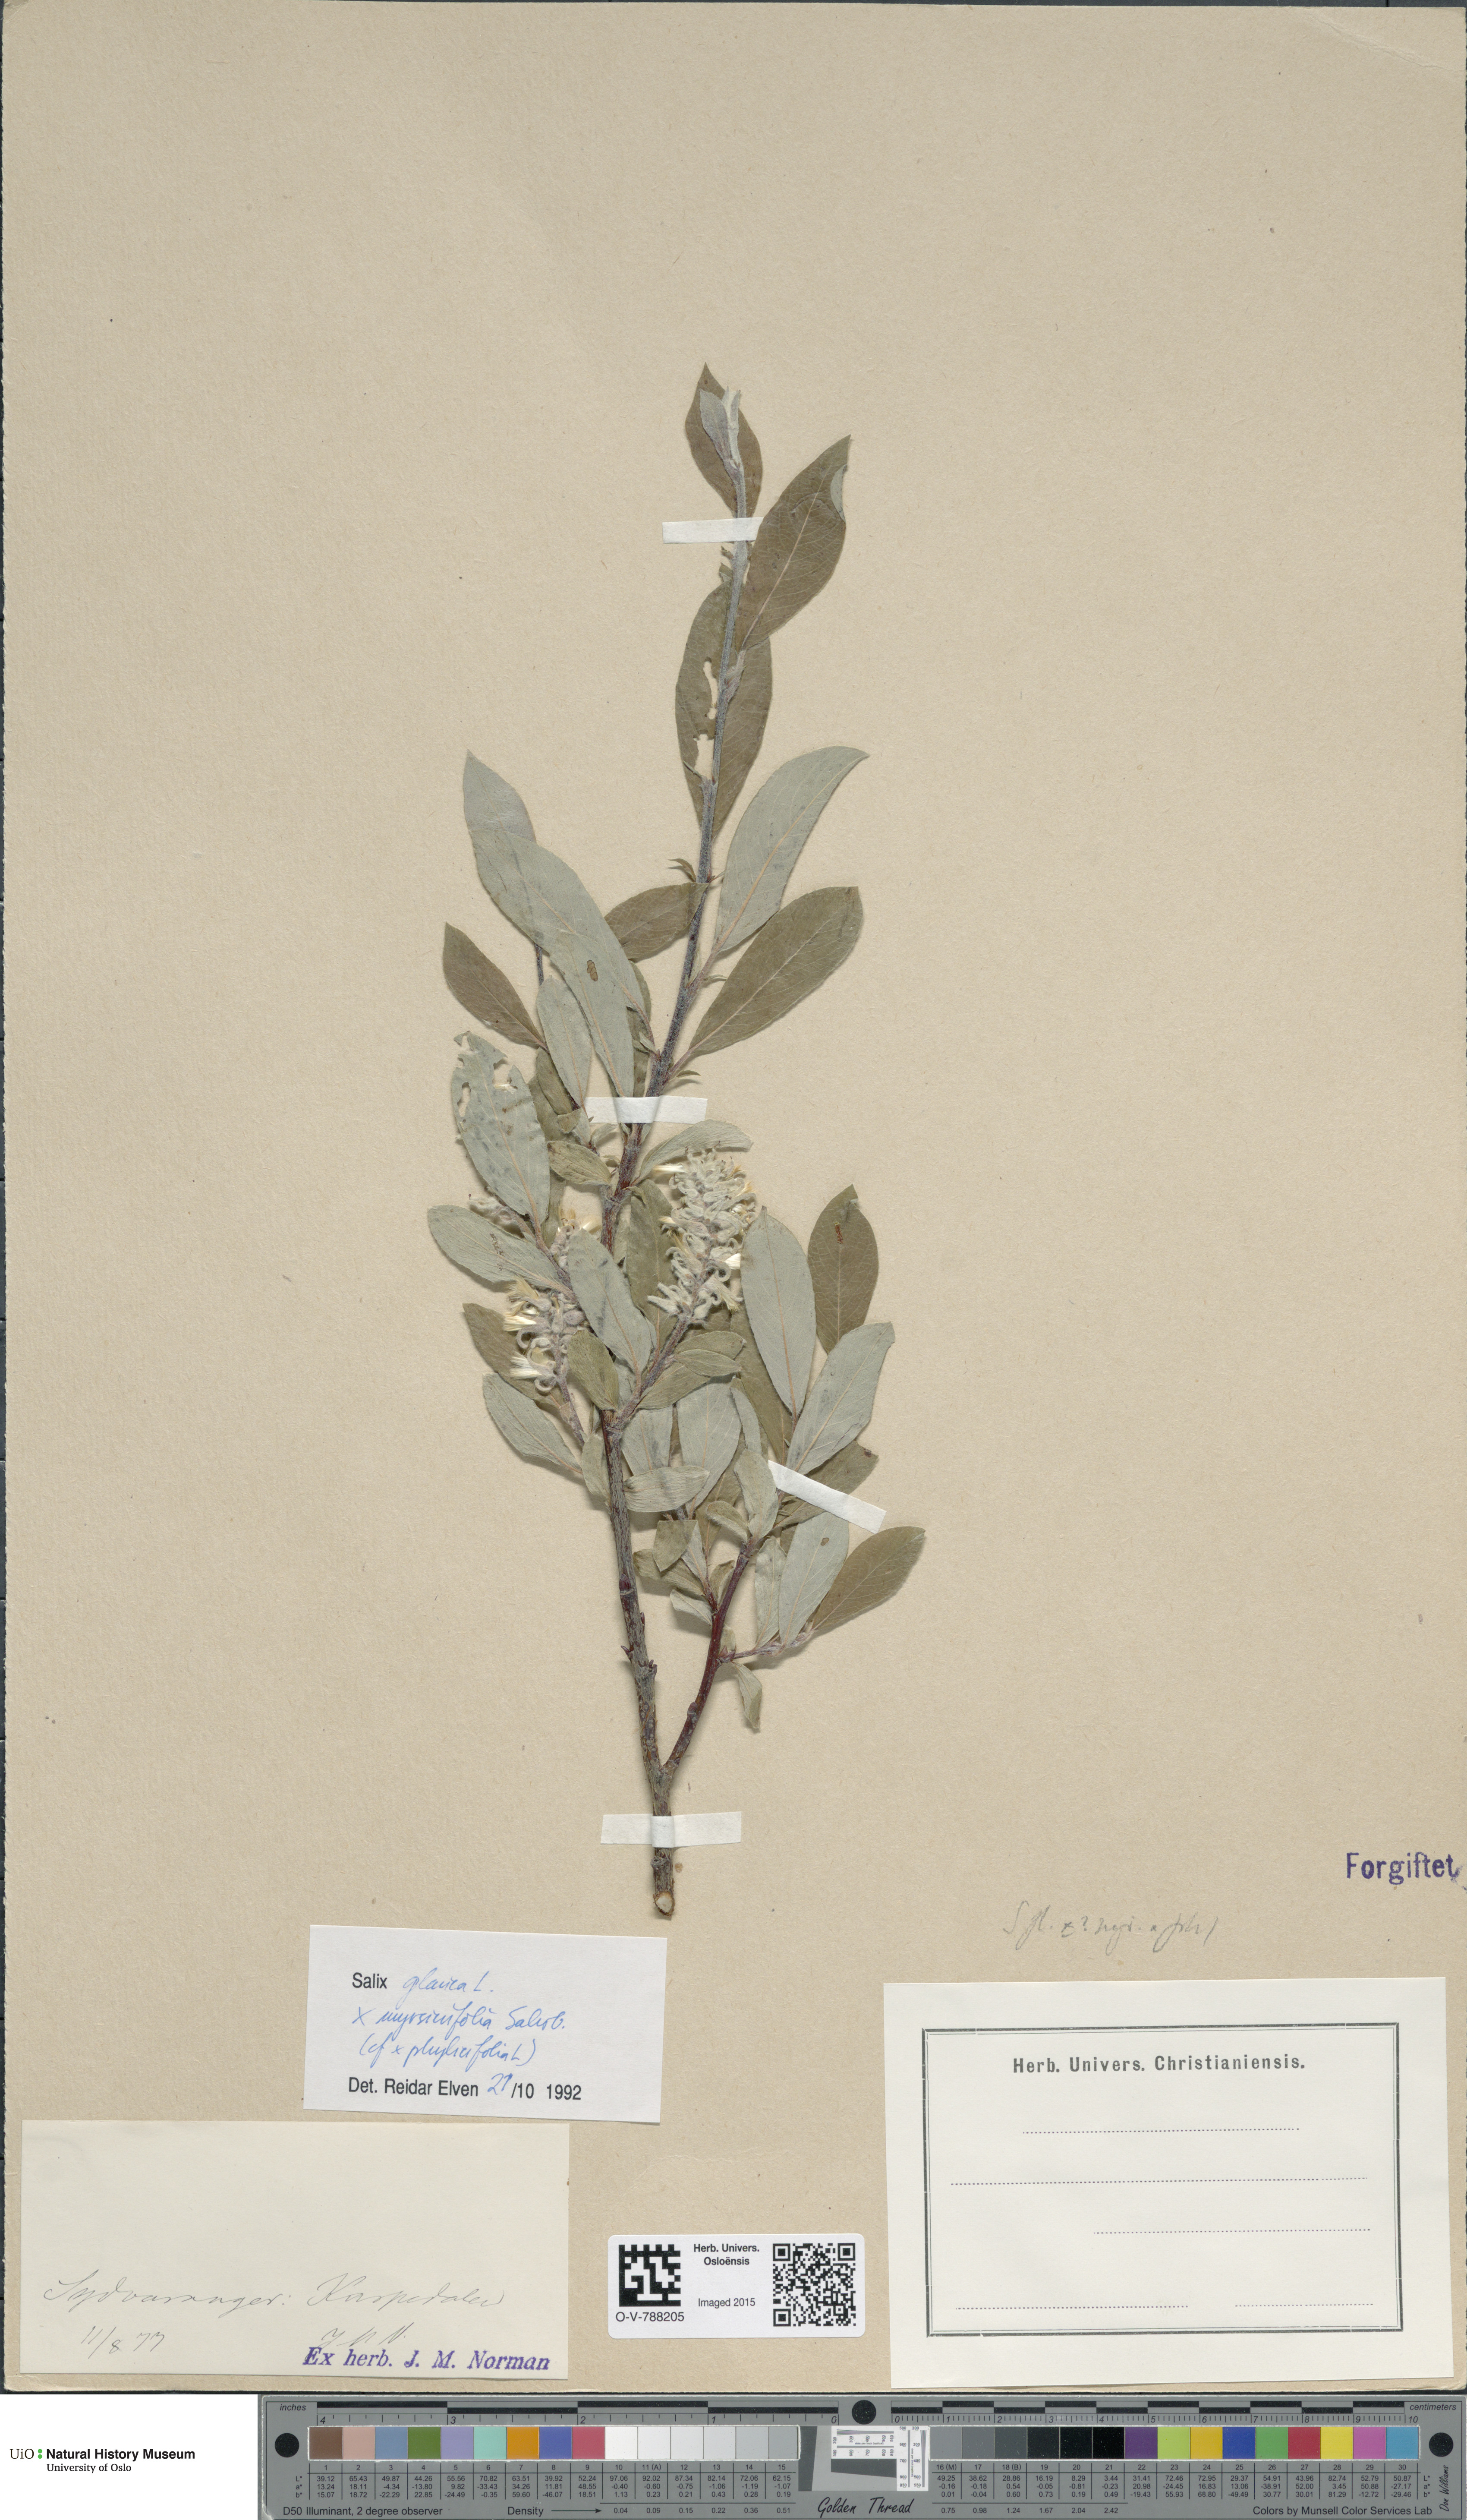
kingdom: Plantae
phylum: Tracheophyta
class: Magnoliopsida
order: Malpighiales
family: Salicaceae
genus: Salix
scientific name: Salix
